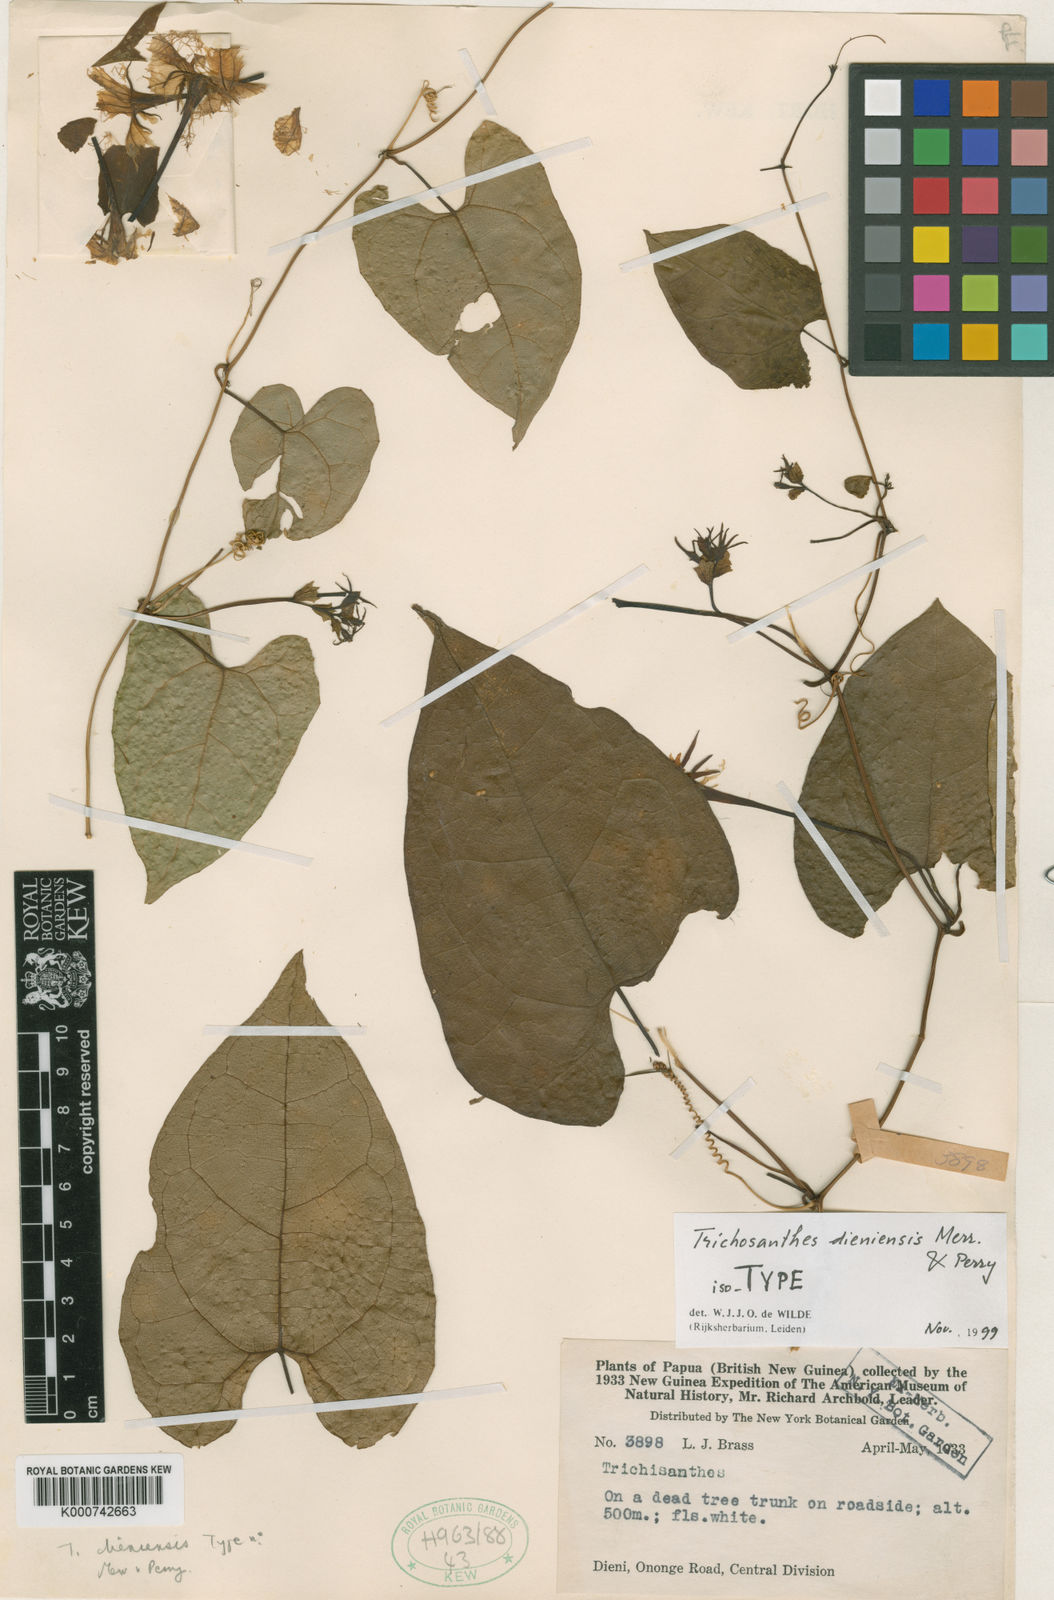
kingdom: Plantae
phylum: Tracheophyta
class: Magnoliopsida
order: Cucurbitales
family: Cucurbitaceae
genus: Trichosanthes
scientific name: Trichosanthes dieniensis
